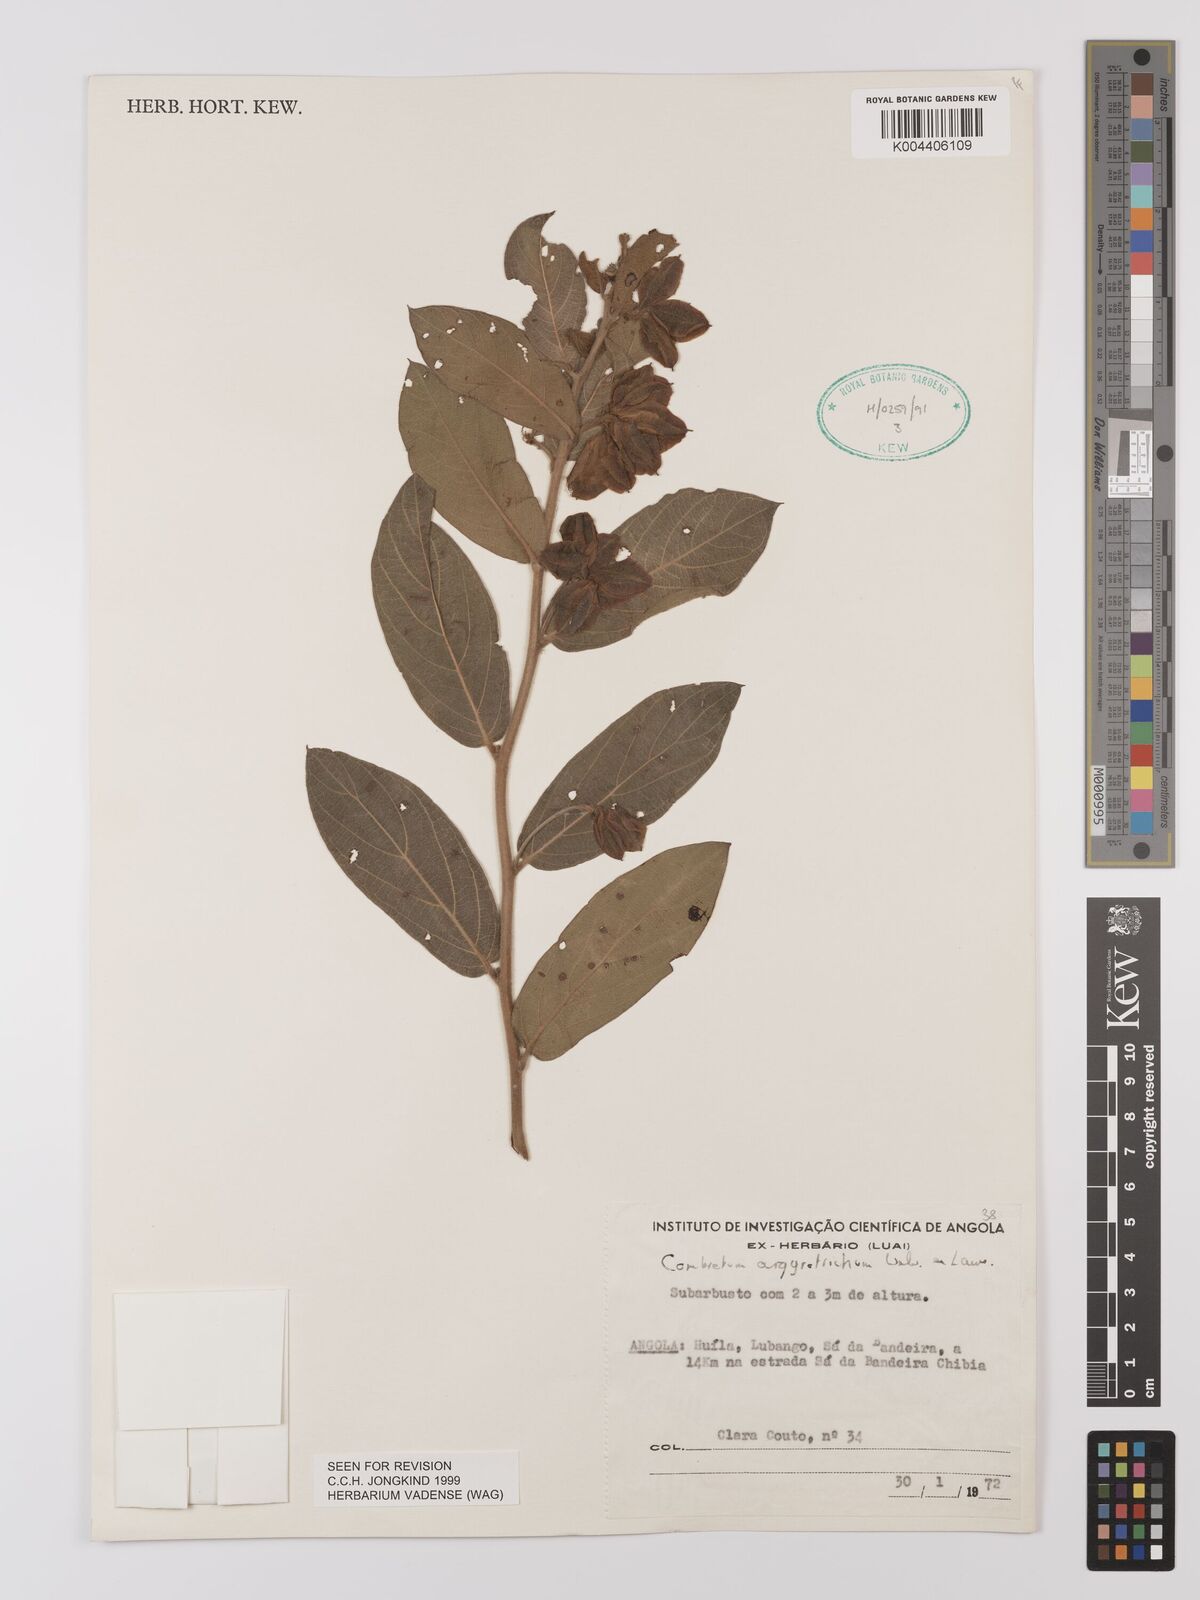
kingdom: Plantae
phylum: Tracheophyta
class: Magnoliopsida
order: Myrtales
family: Combretaceae
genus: Combretum
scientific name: Combretum
